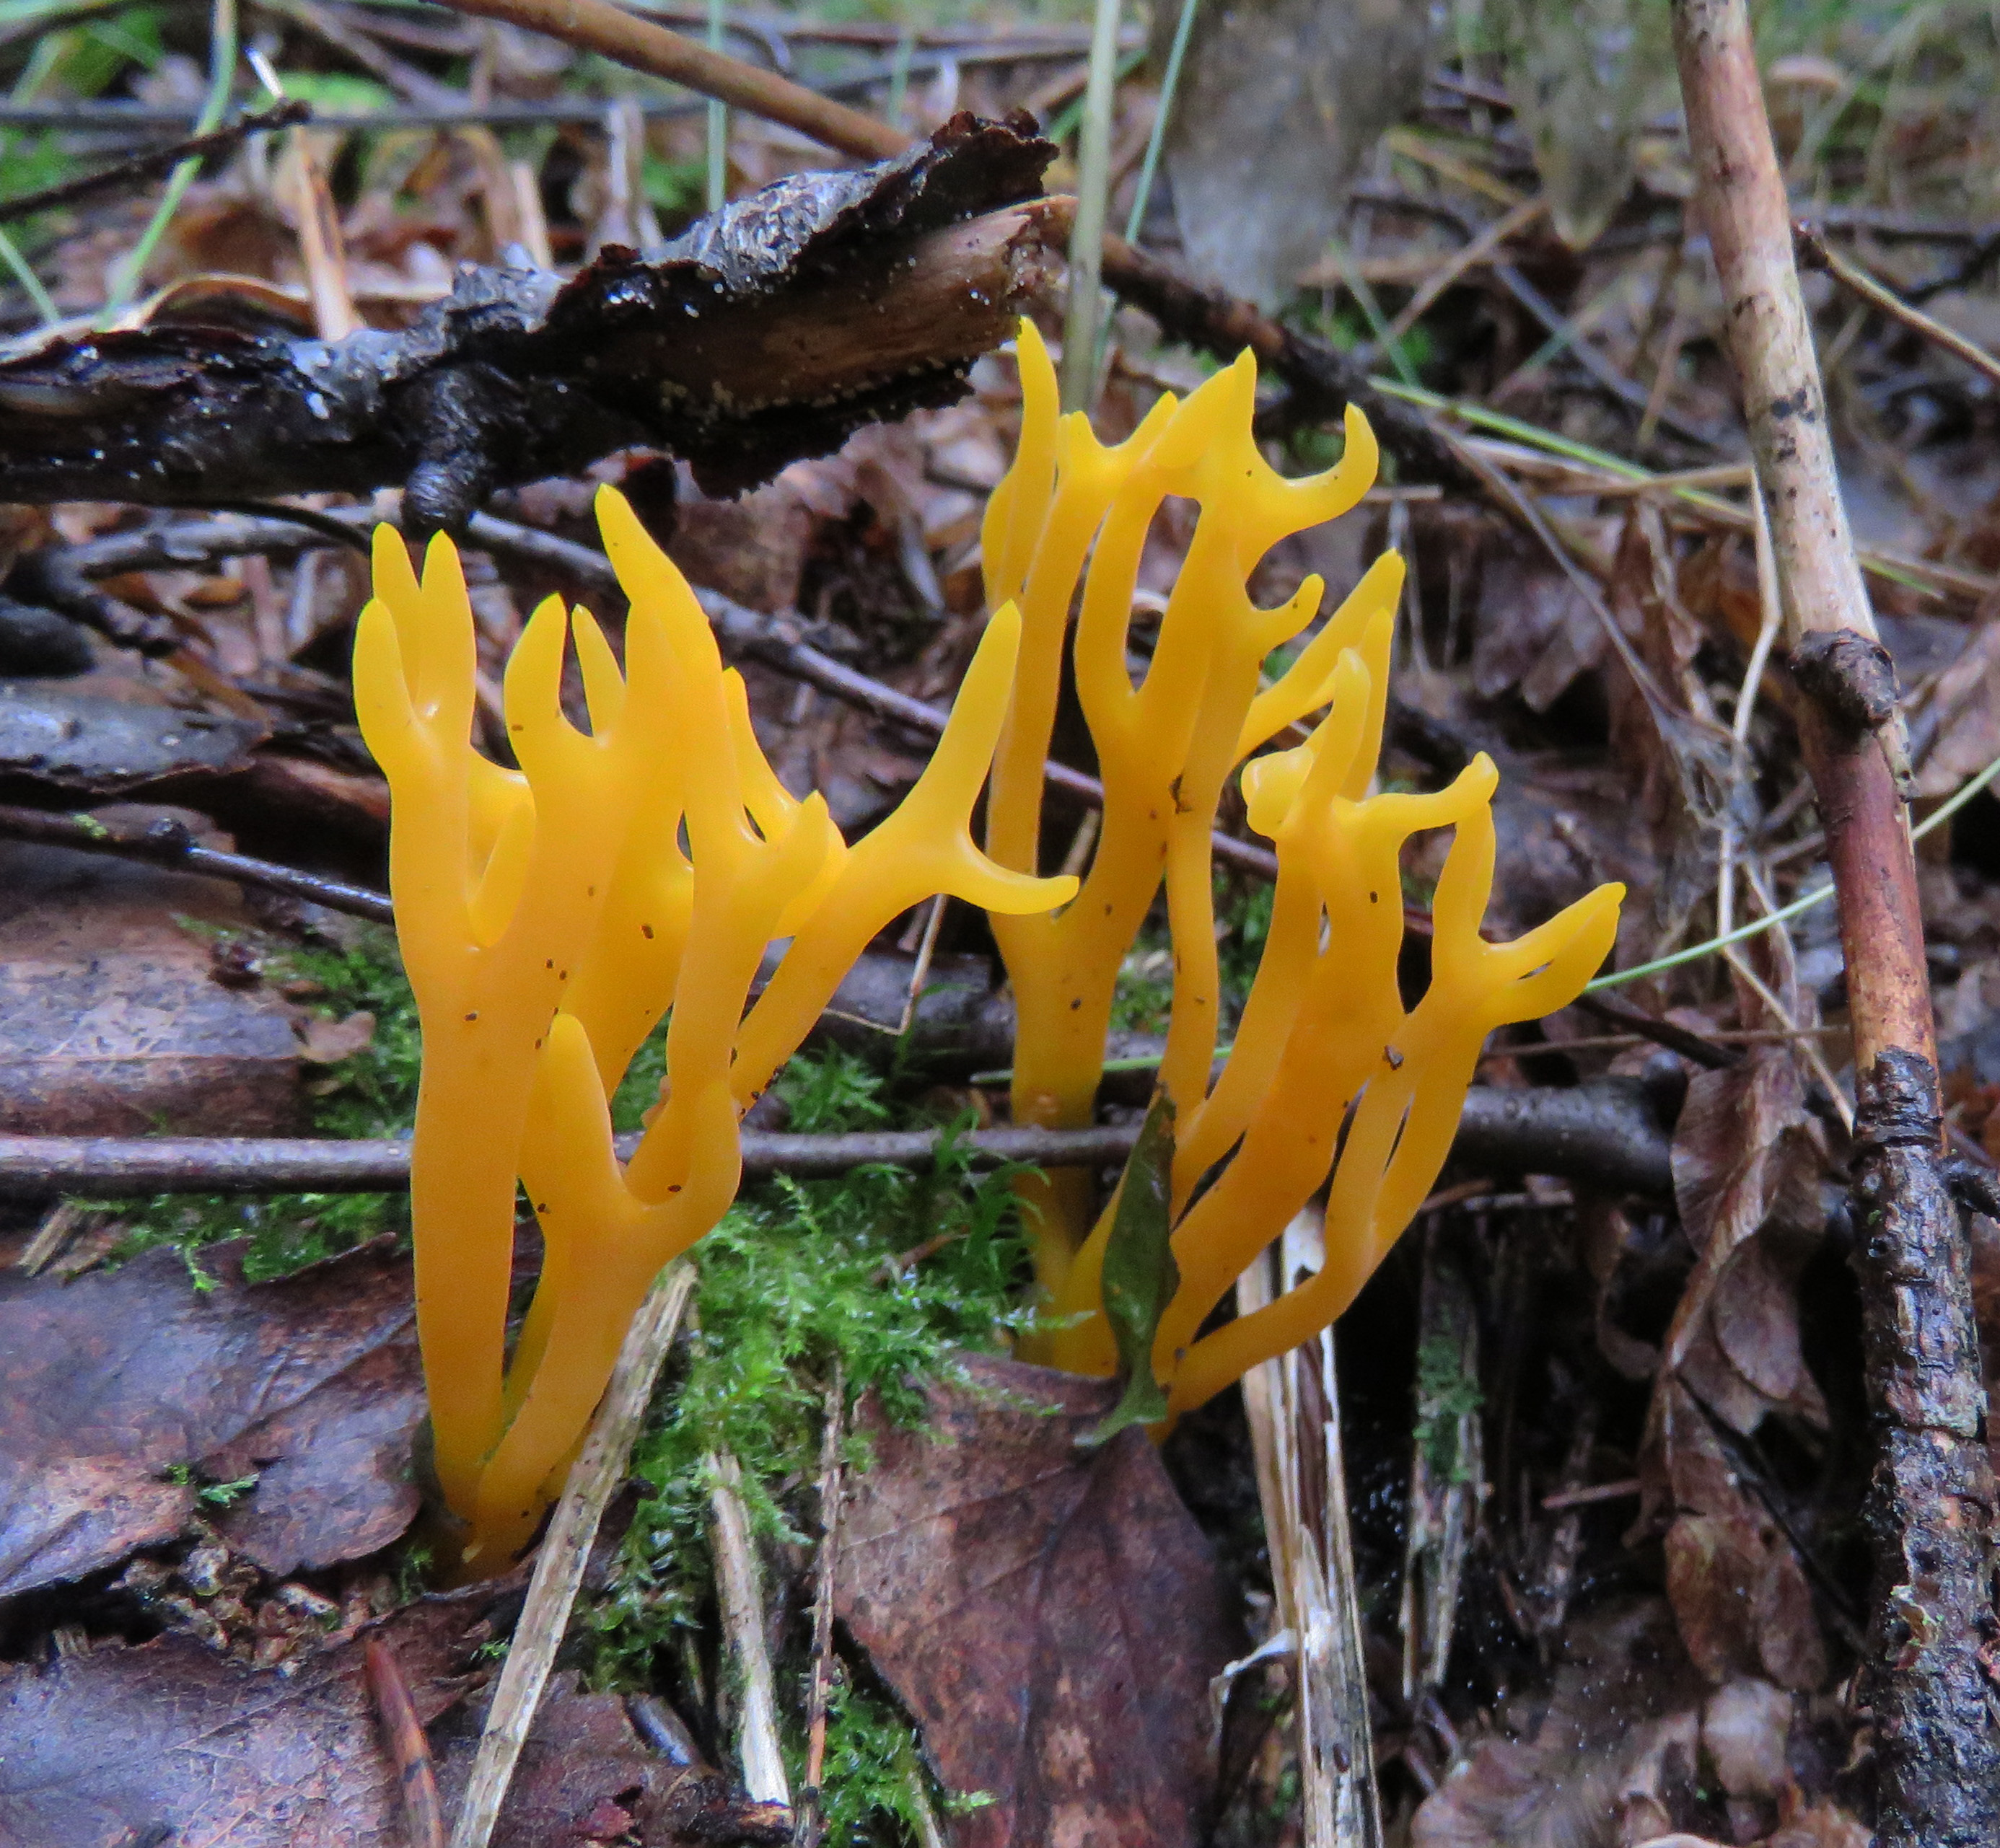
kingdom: Fungi
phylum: Basidiomycota
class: Dacrymycetes
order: Dacrymycetales
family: Dacrymycetaceae
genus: Calocera
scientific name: Calocera viscosa
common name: Yellow stagshorn
